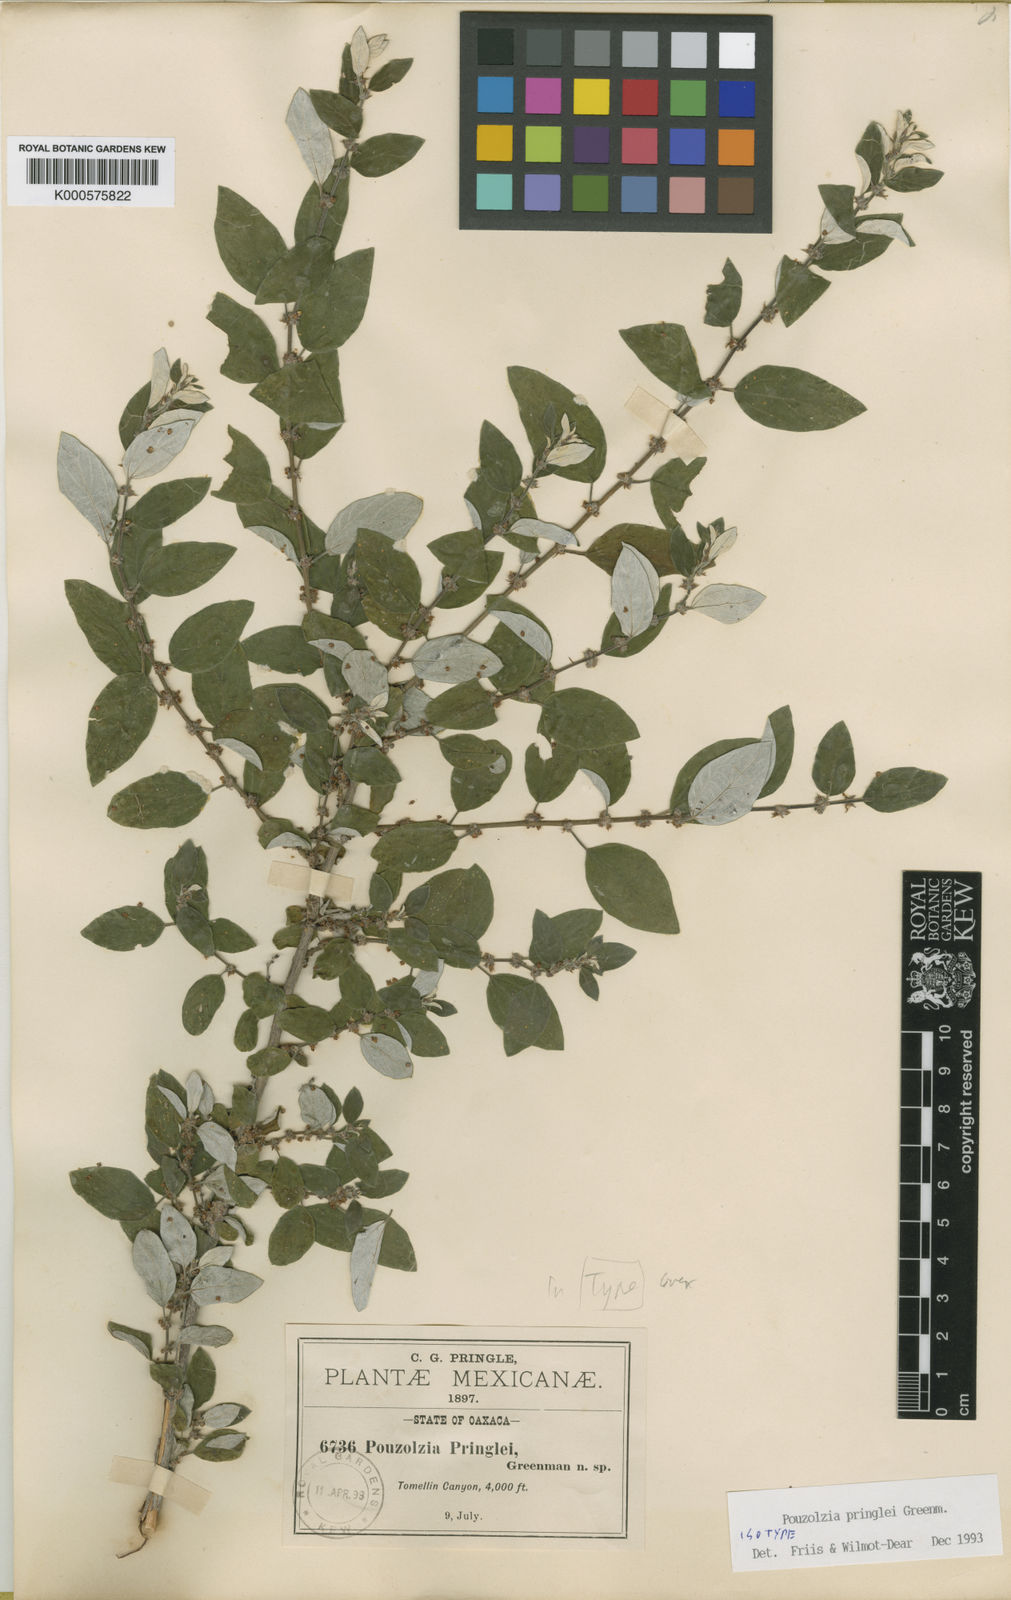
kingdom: Plantae
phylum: Tracheophyta
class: Magnoliopsida
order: Rosales
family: Urticaceae
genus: Pouzolzia
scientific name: Pouzolzia pringlei
